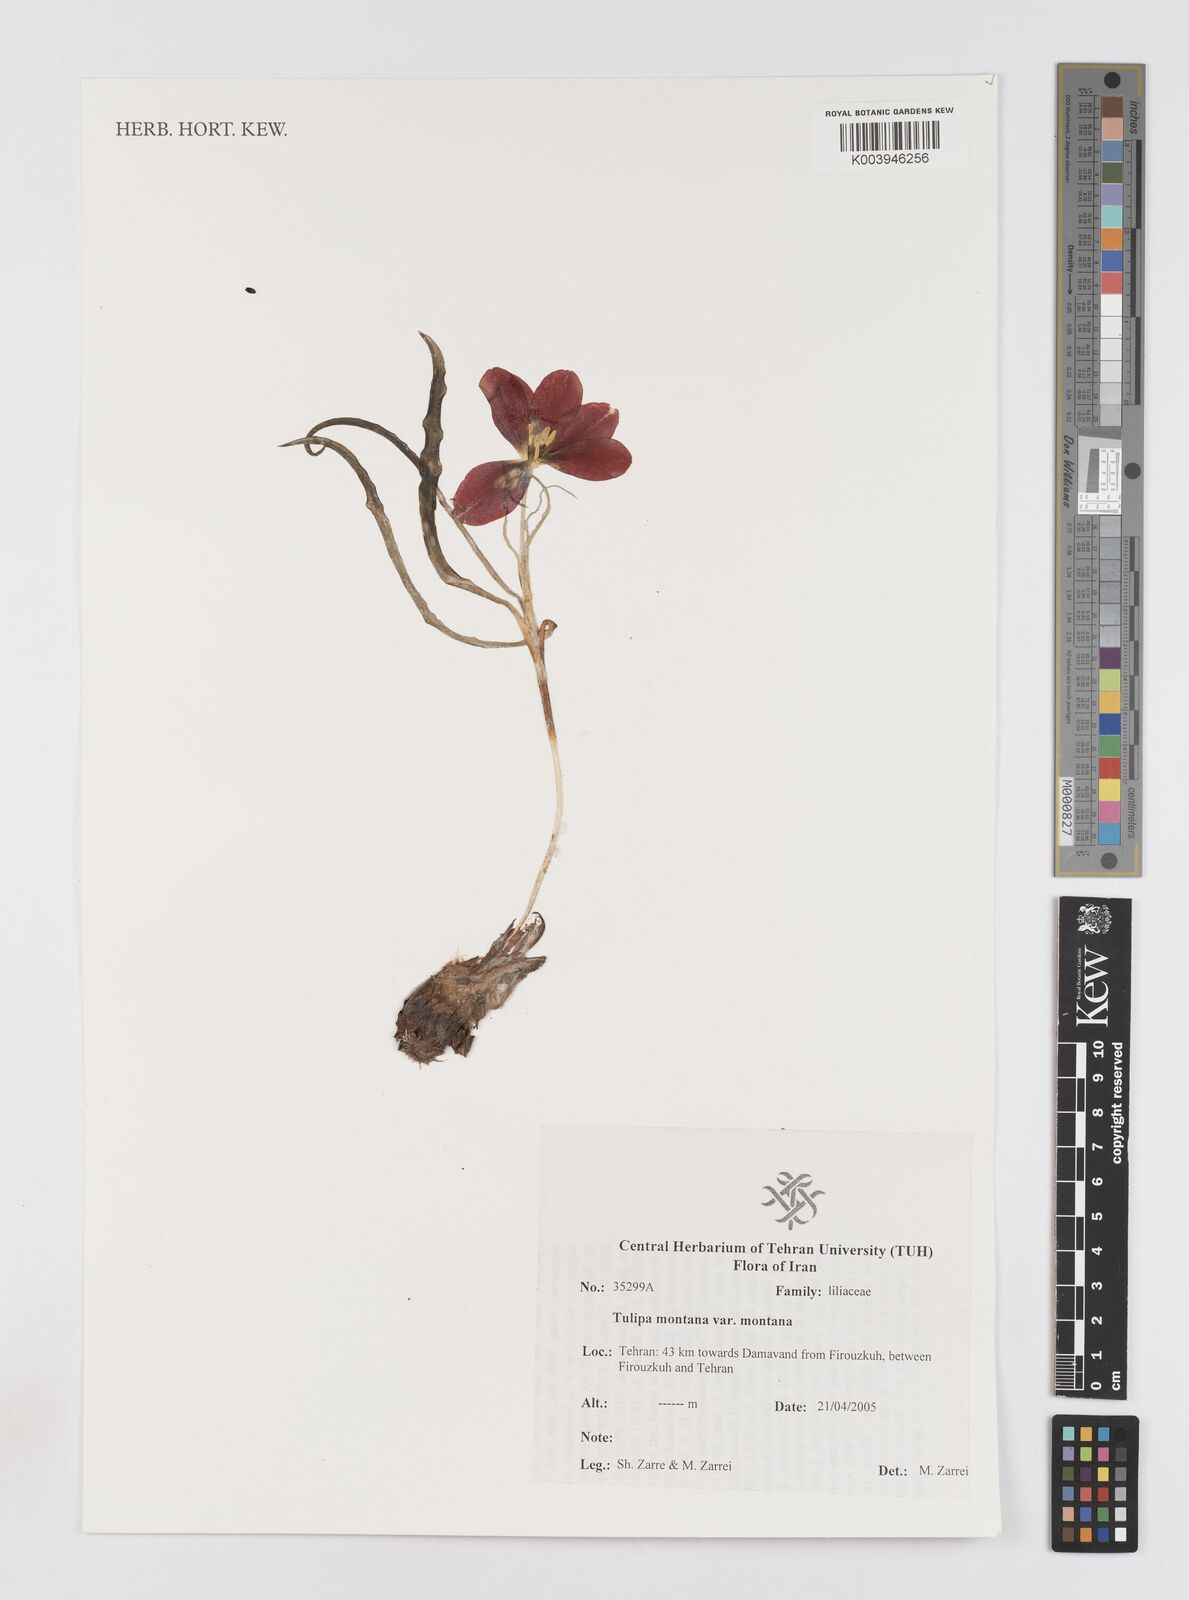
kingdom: Plantae
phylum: Tracheophyta
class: Liliopsida
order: Liliales
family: Liliaceae
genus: Tulipa
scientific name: Tulipa montana
